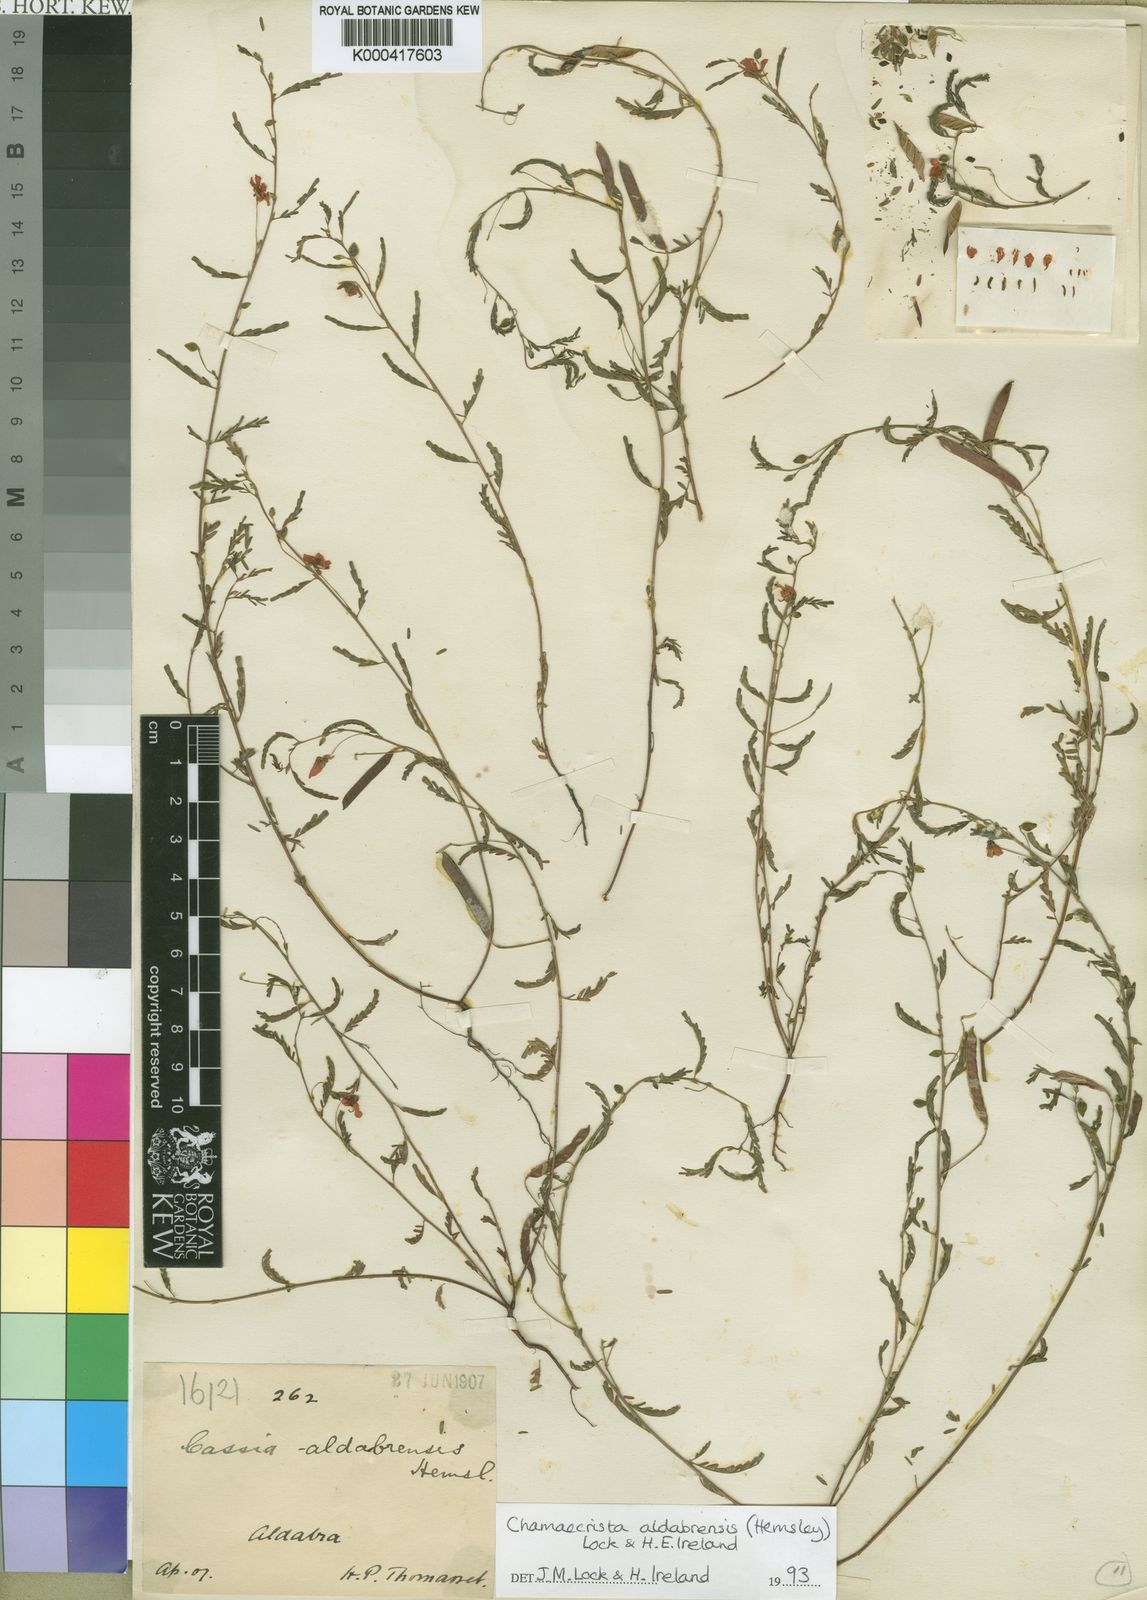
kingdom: Plantae
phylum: Tracheophyta
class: Magnoliopsida
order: Fabales
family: Fabaceae
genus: Chamaecrista
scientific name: Chamaecrista aldabrensis
